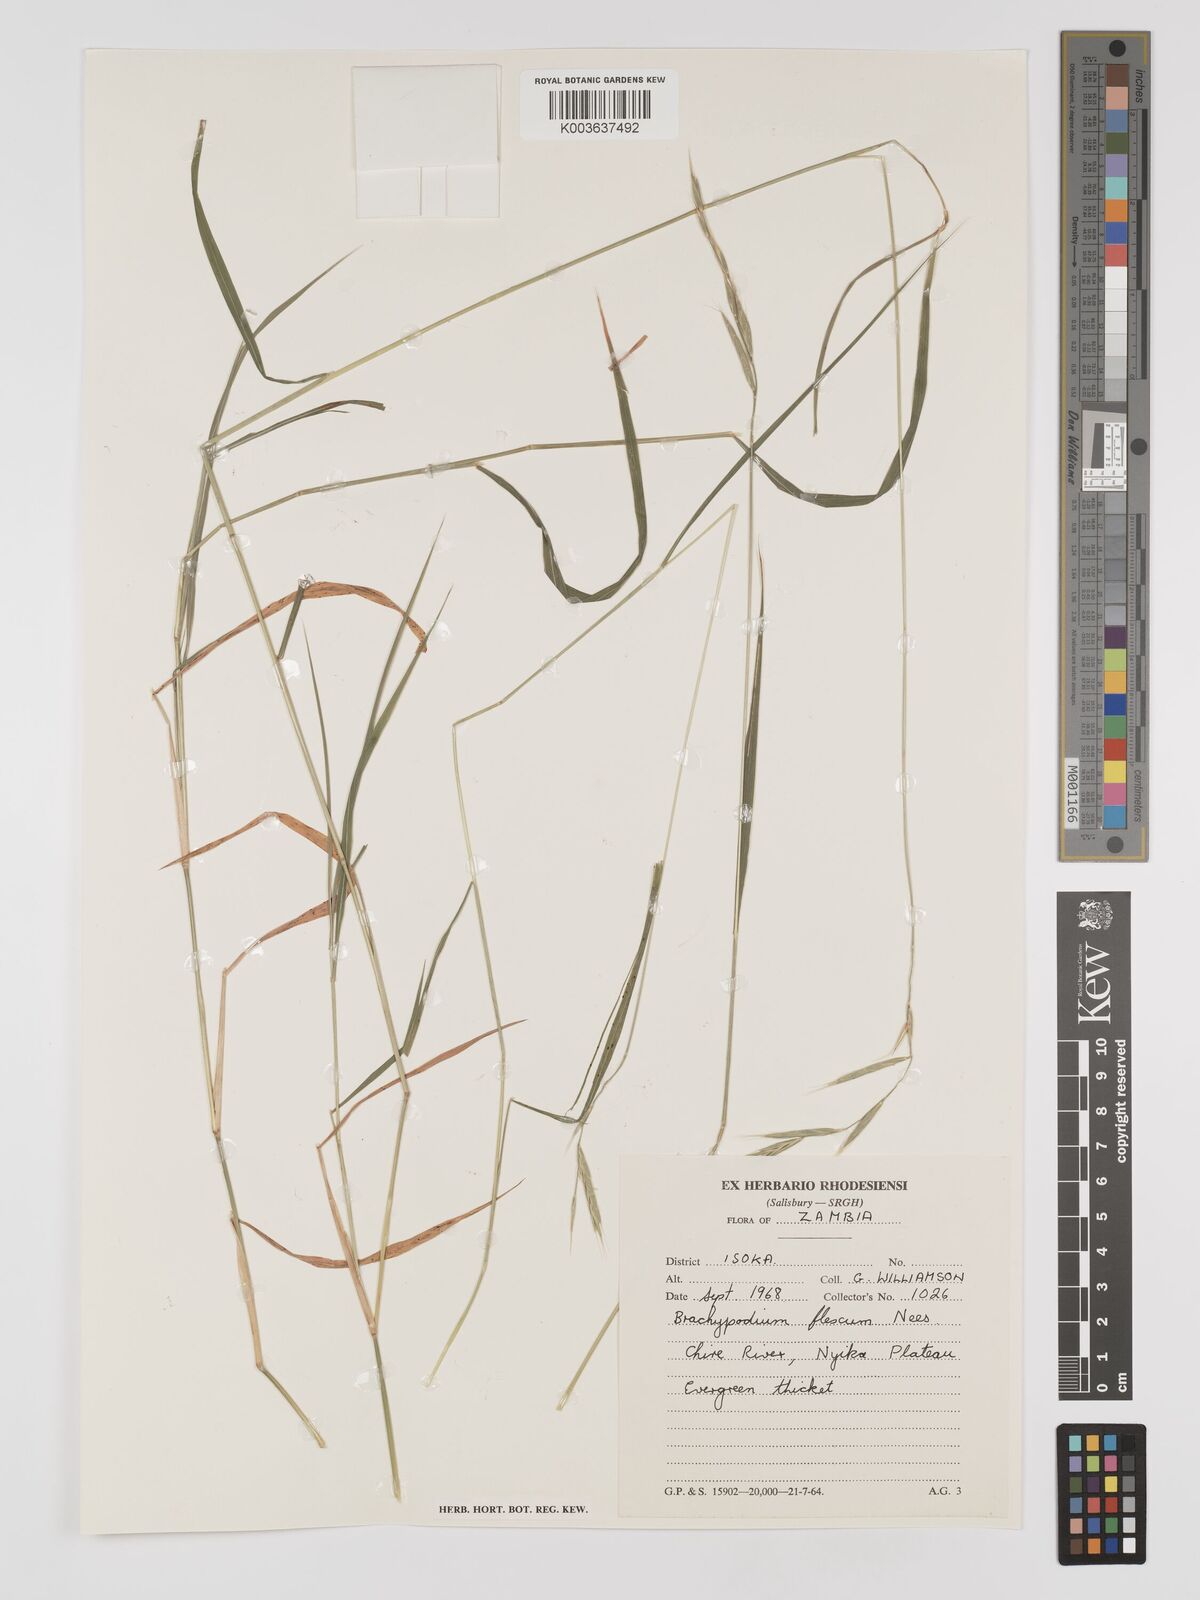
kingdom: Plantae
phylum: Tracheophyta
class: Liliopsida
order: Poales
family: Poaceae
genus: Brachypodium
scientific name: Brachypodium flexum
